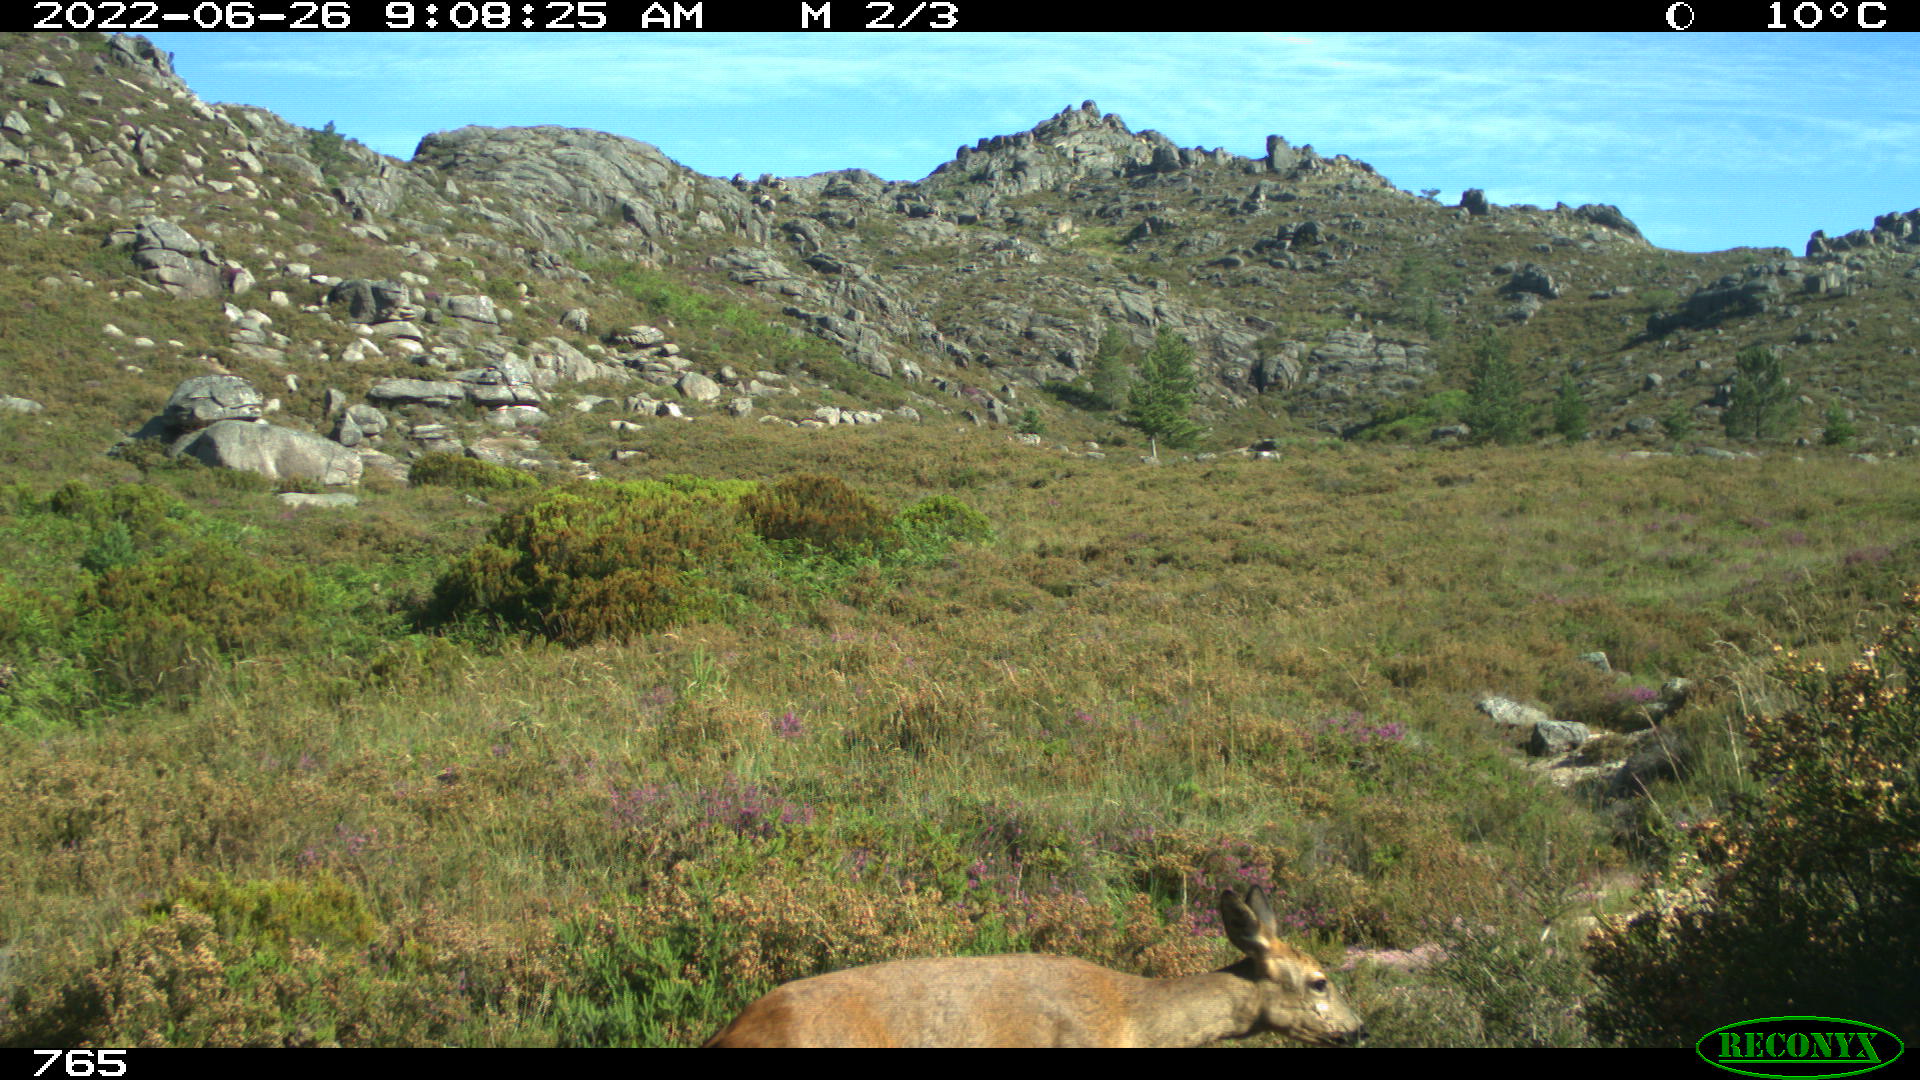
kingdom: Animalia
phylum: Chordata
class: Mammalia
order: Artiodactyla
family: Cervidae
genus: Capreolus
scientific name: Capreolus capreolus
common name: Western roe deer
